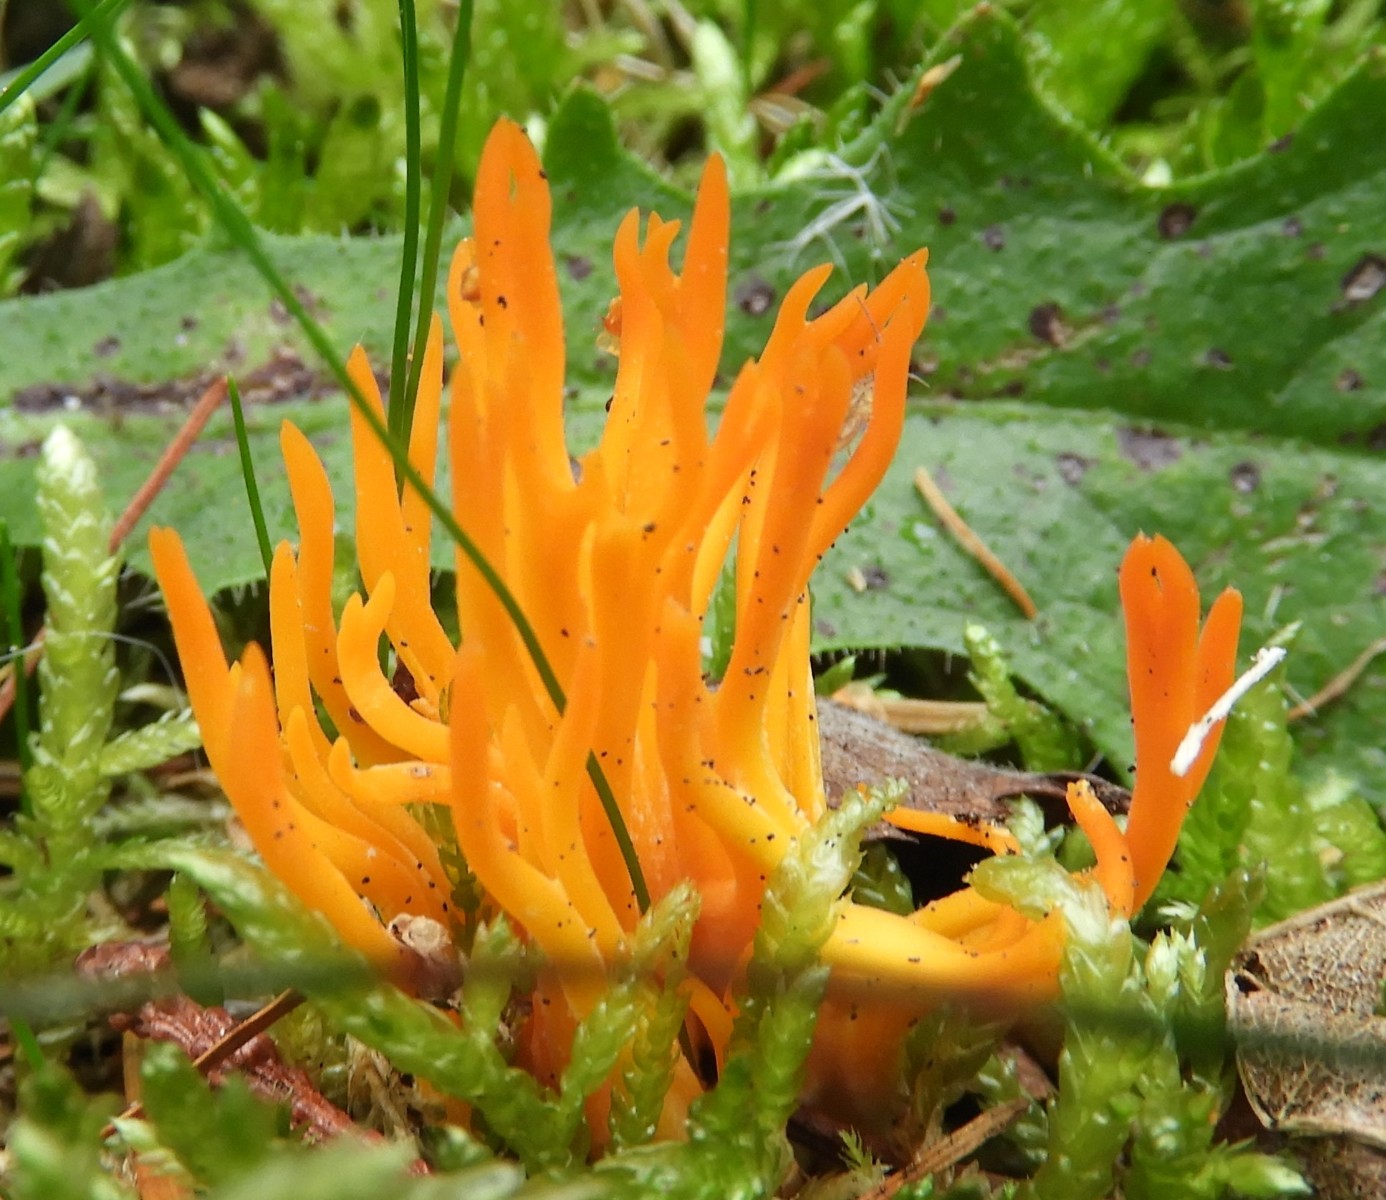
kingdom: Fungi
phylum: Basidiomycota
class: Dacrymycetes
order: Dacrymycetales
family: Dacrymycetaceae
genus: Calocera
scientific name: Calocera viscosa
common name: almindelig guldgaffel
